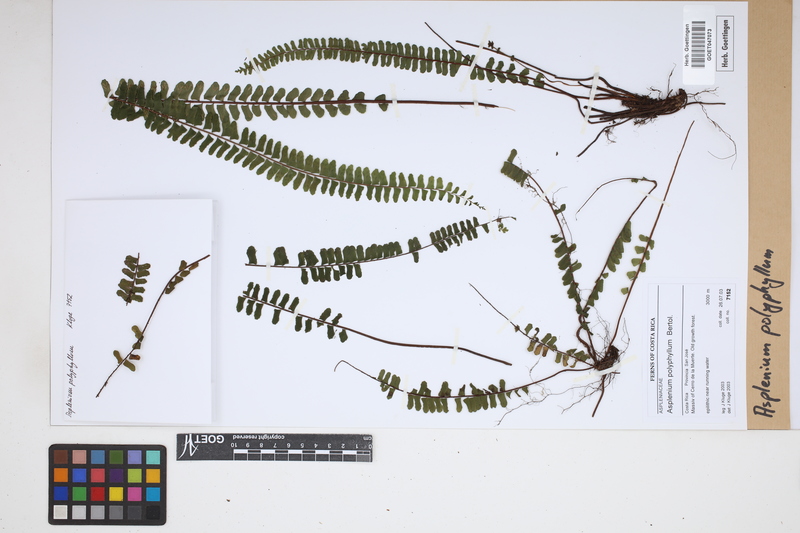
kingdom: Plantae
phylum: Tracheophyta
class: Polypodiopsida
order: Polypodiales
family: Aspleniaceae
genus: Asplenium
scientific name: Asplenium polyphyllum
